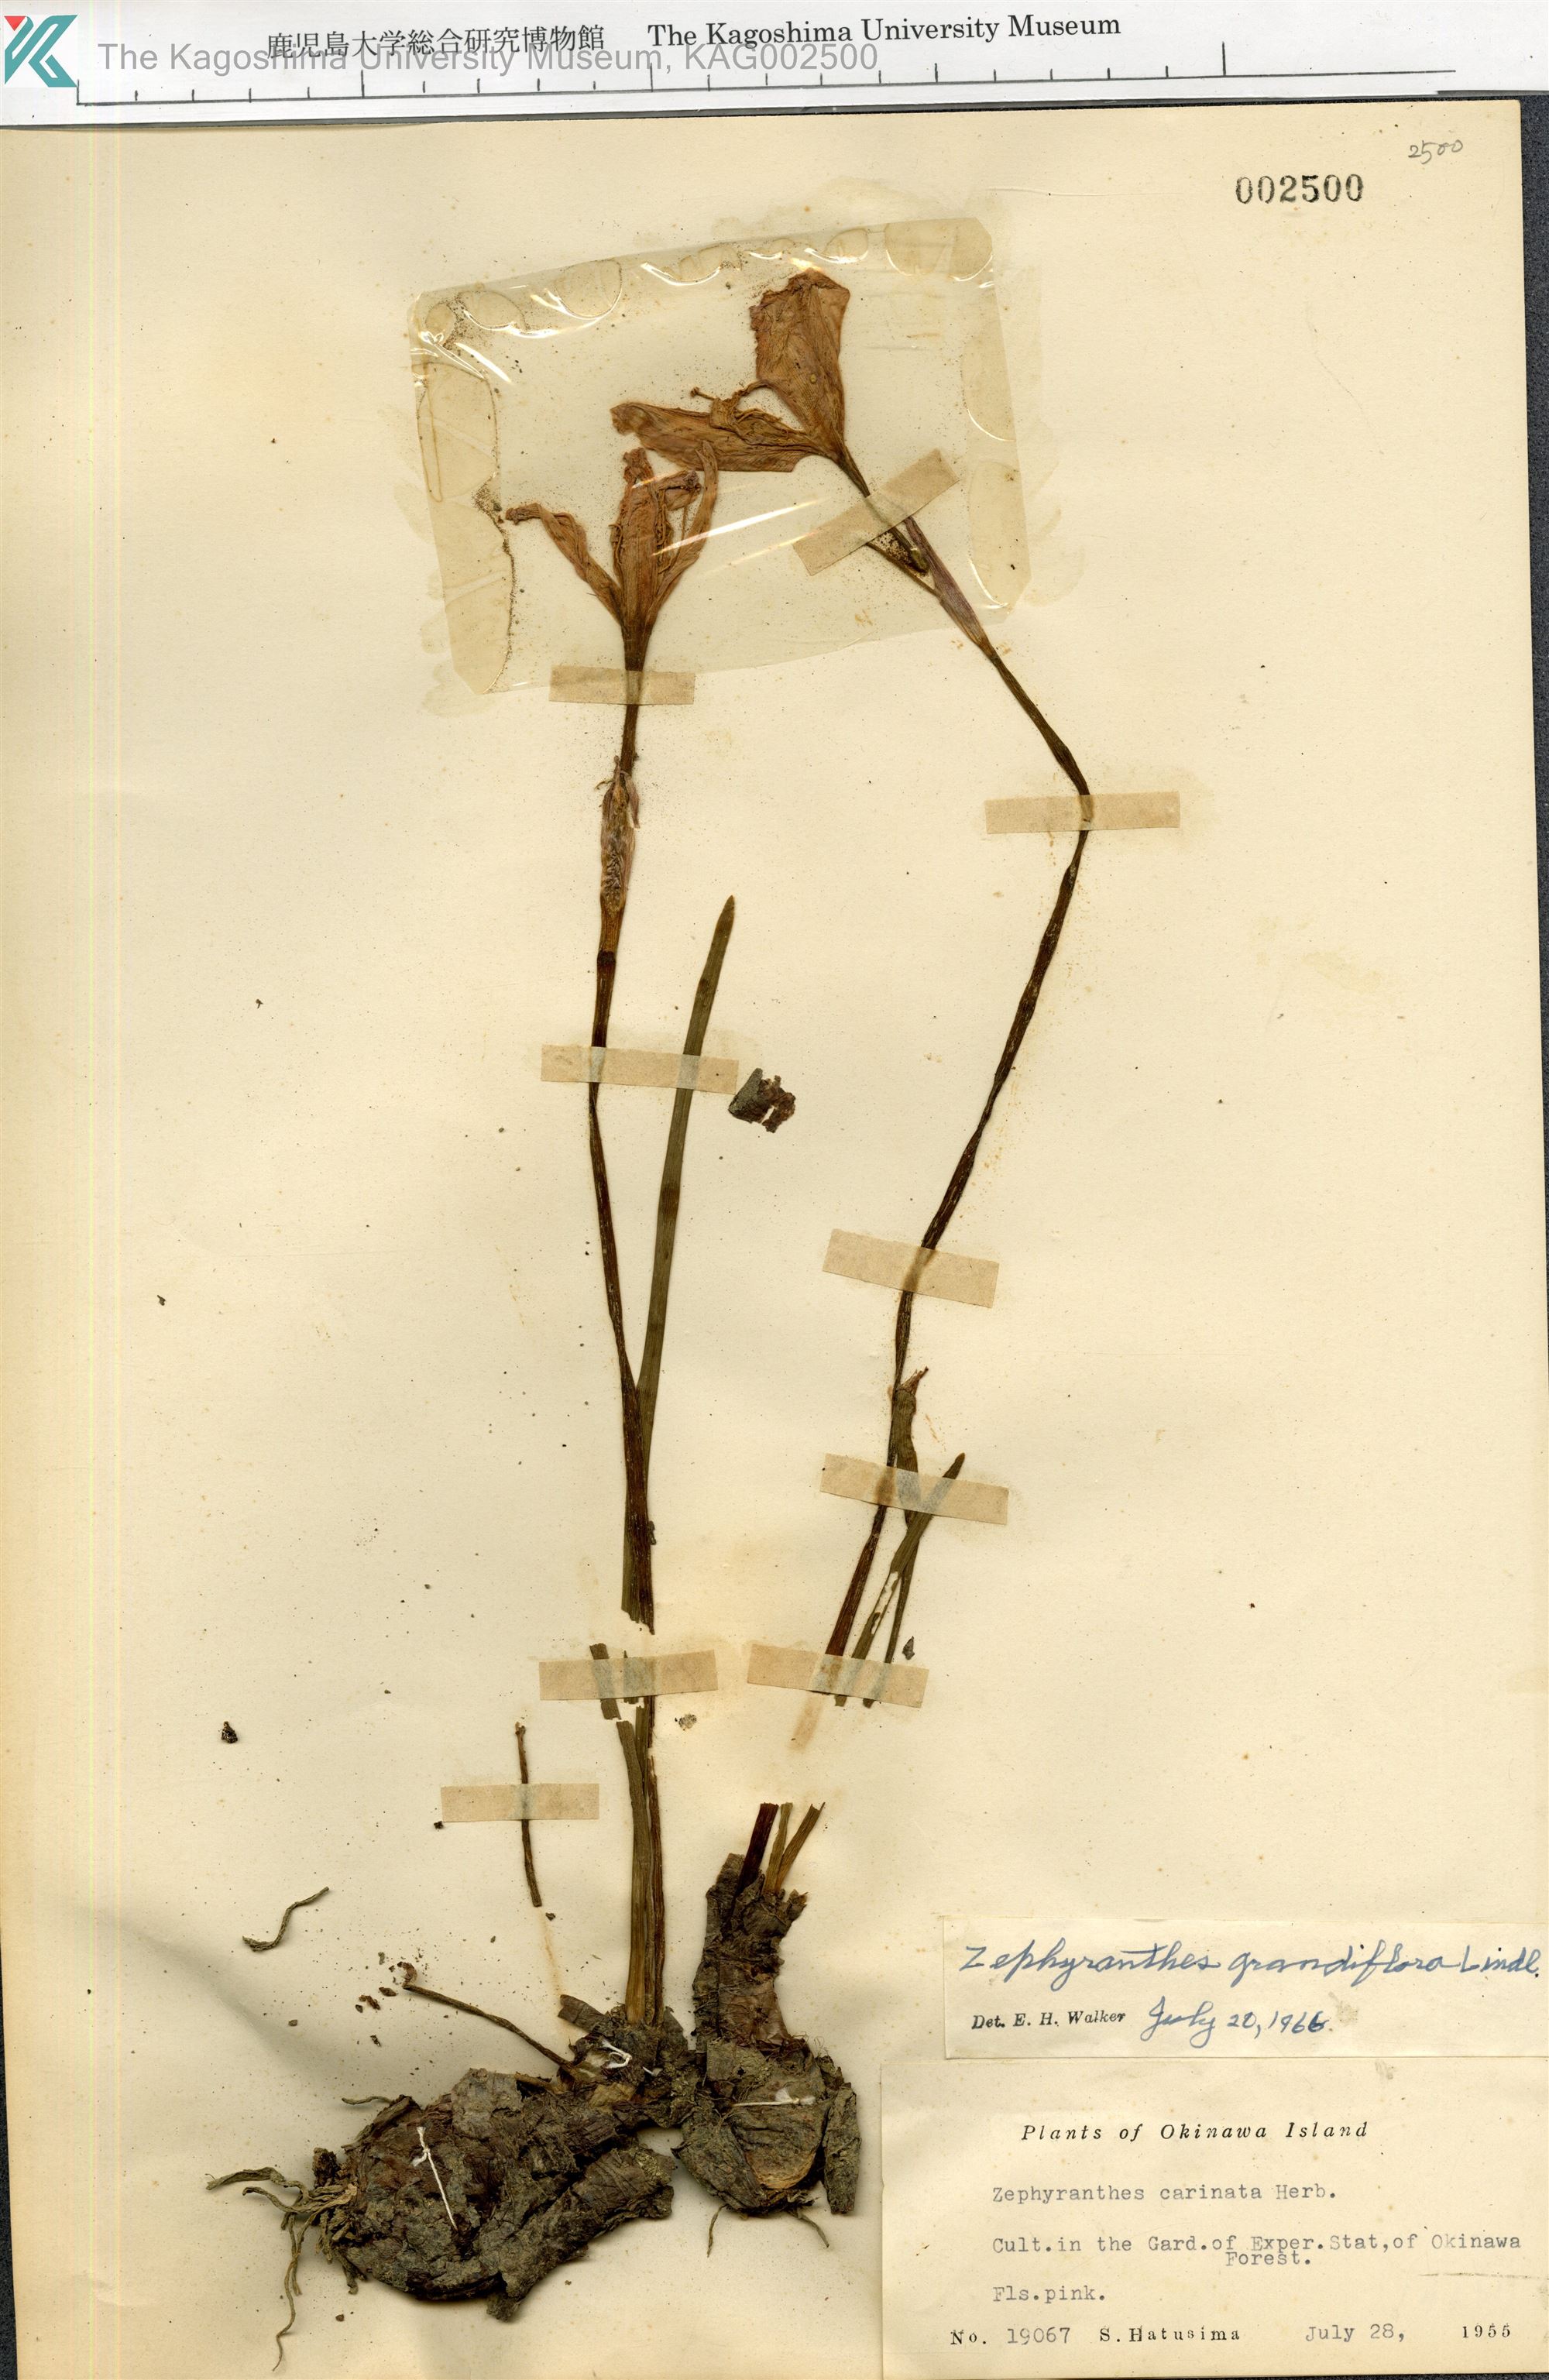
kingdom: Plantae
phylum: Tracheophyta
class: Liliopsida
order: Asparagales
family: Amaryllidaceae
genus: Zephyranthes
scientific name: Zephyranthes minuta
